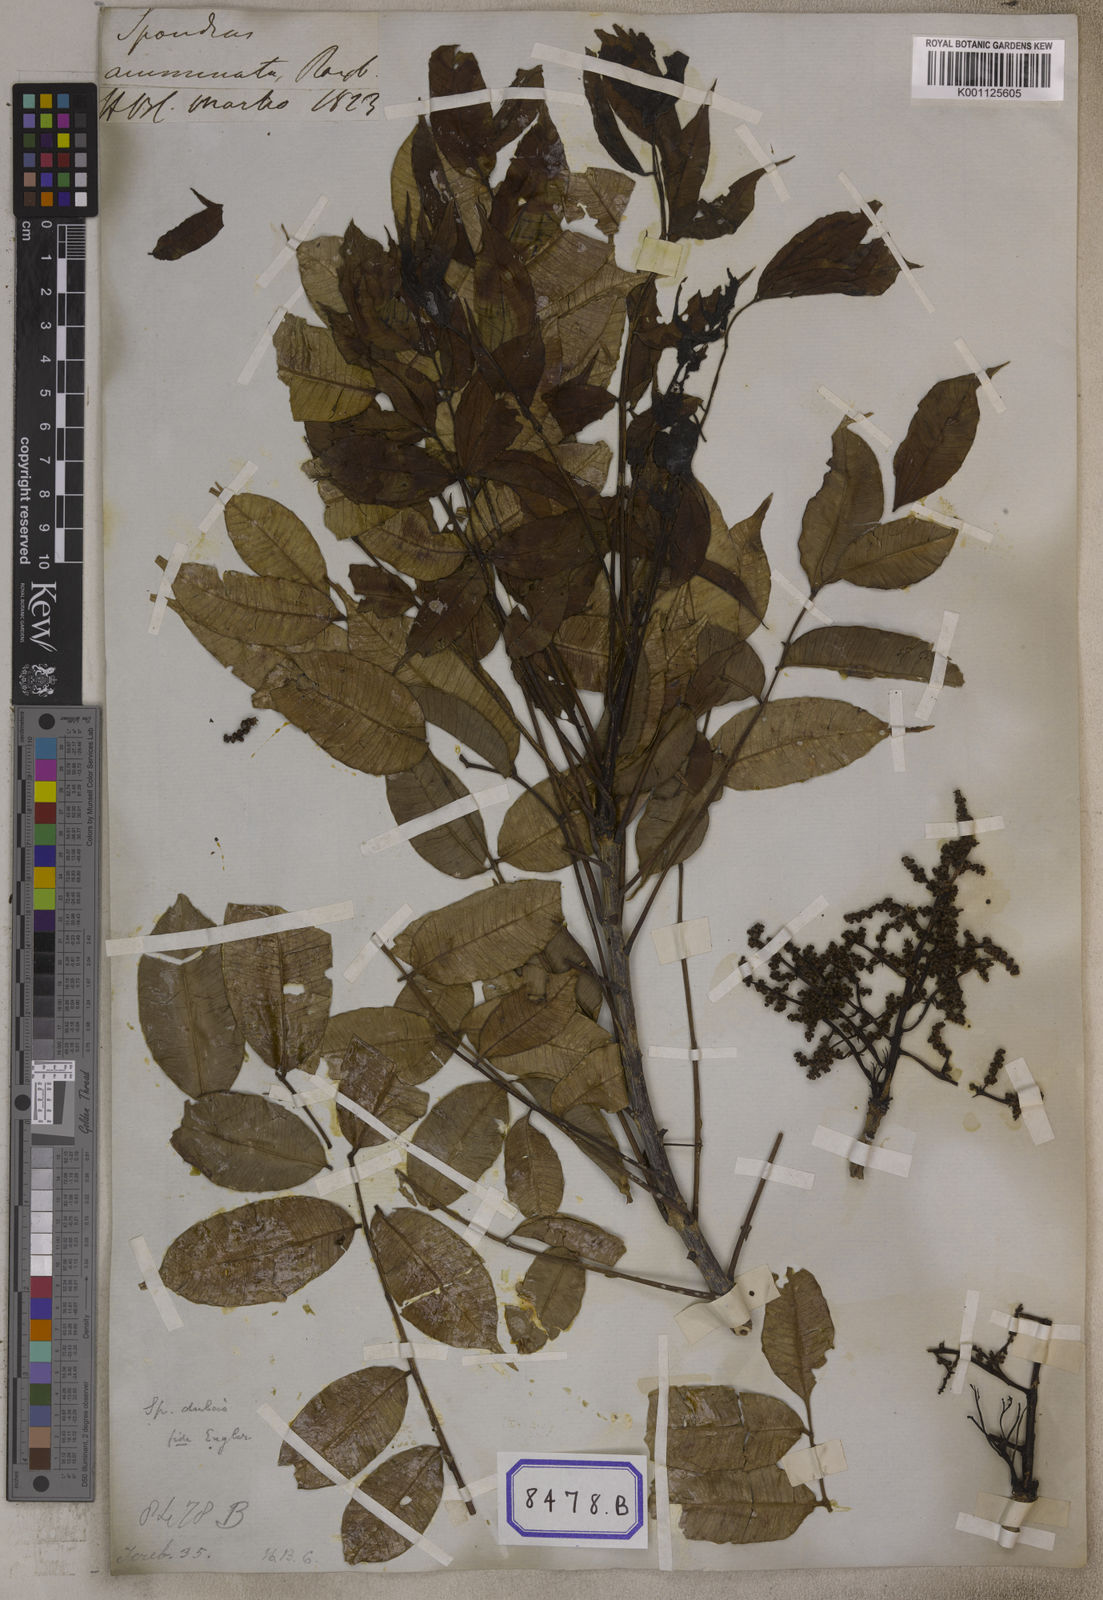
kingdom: Plantae
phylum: Tracheophyta
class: Magnoliopsida
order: Sapindales
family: Anacardiaceae
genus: Spondias
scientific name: Spondias pinnata
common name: Common hog-plum
